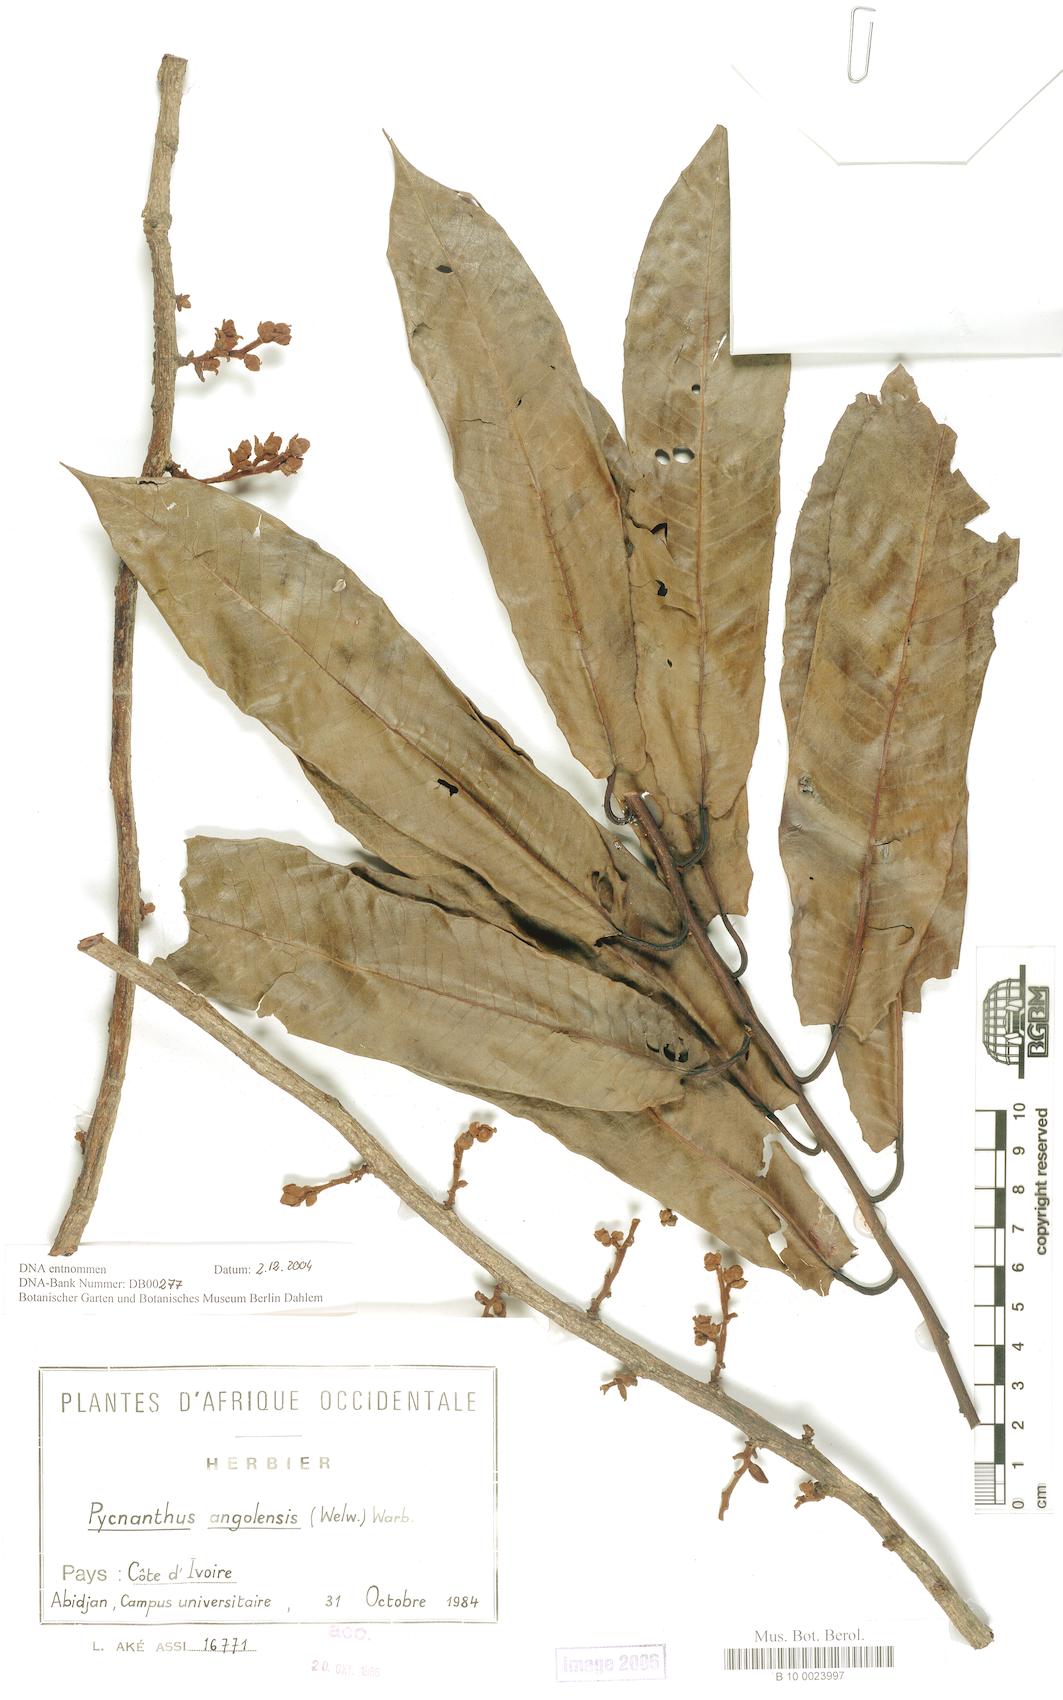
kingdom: Plantae
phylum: Tracheophyta
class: Magnoliopsida
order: Magnoliales
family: Myristicaceae
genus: Pycnanthus
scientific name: Pycnanthus angolensis
